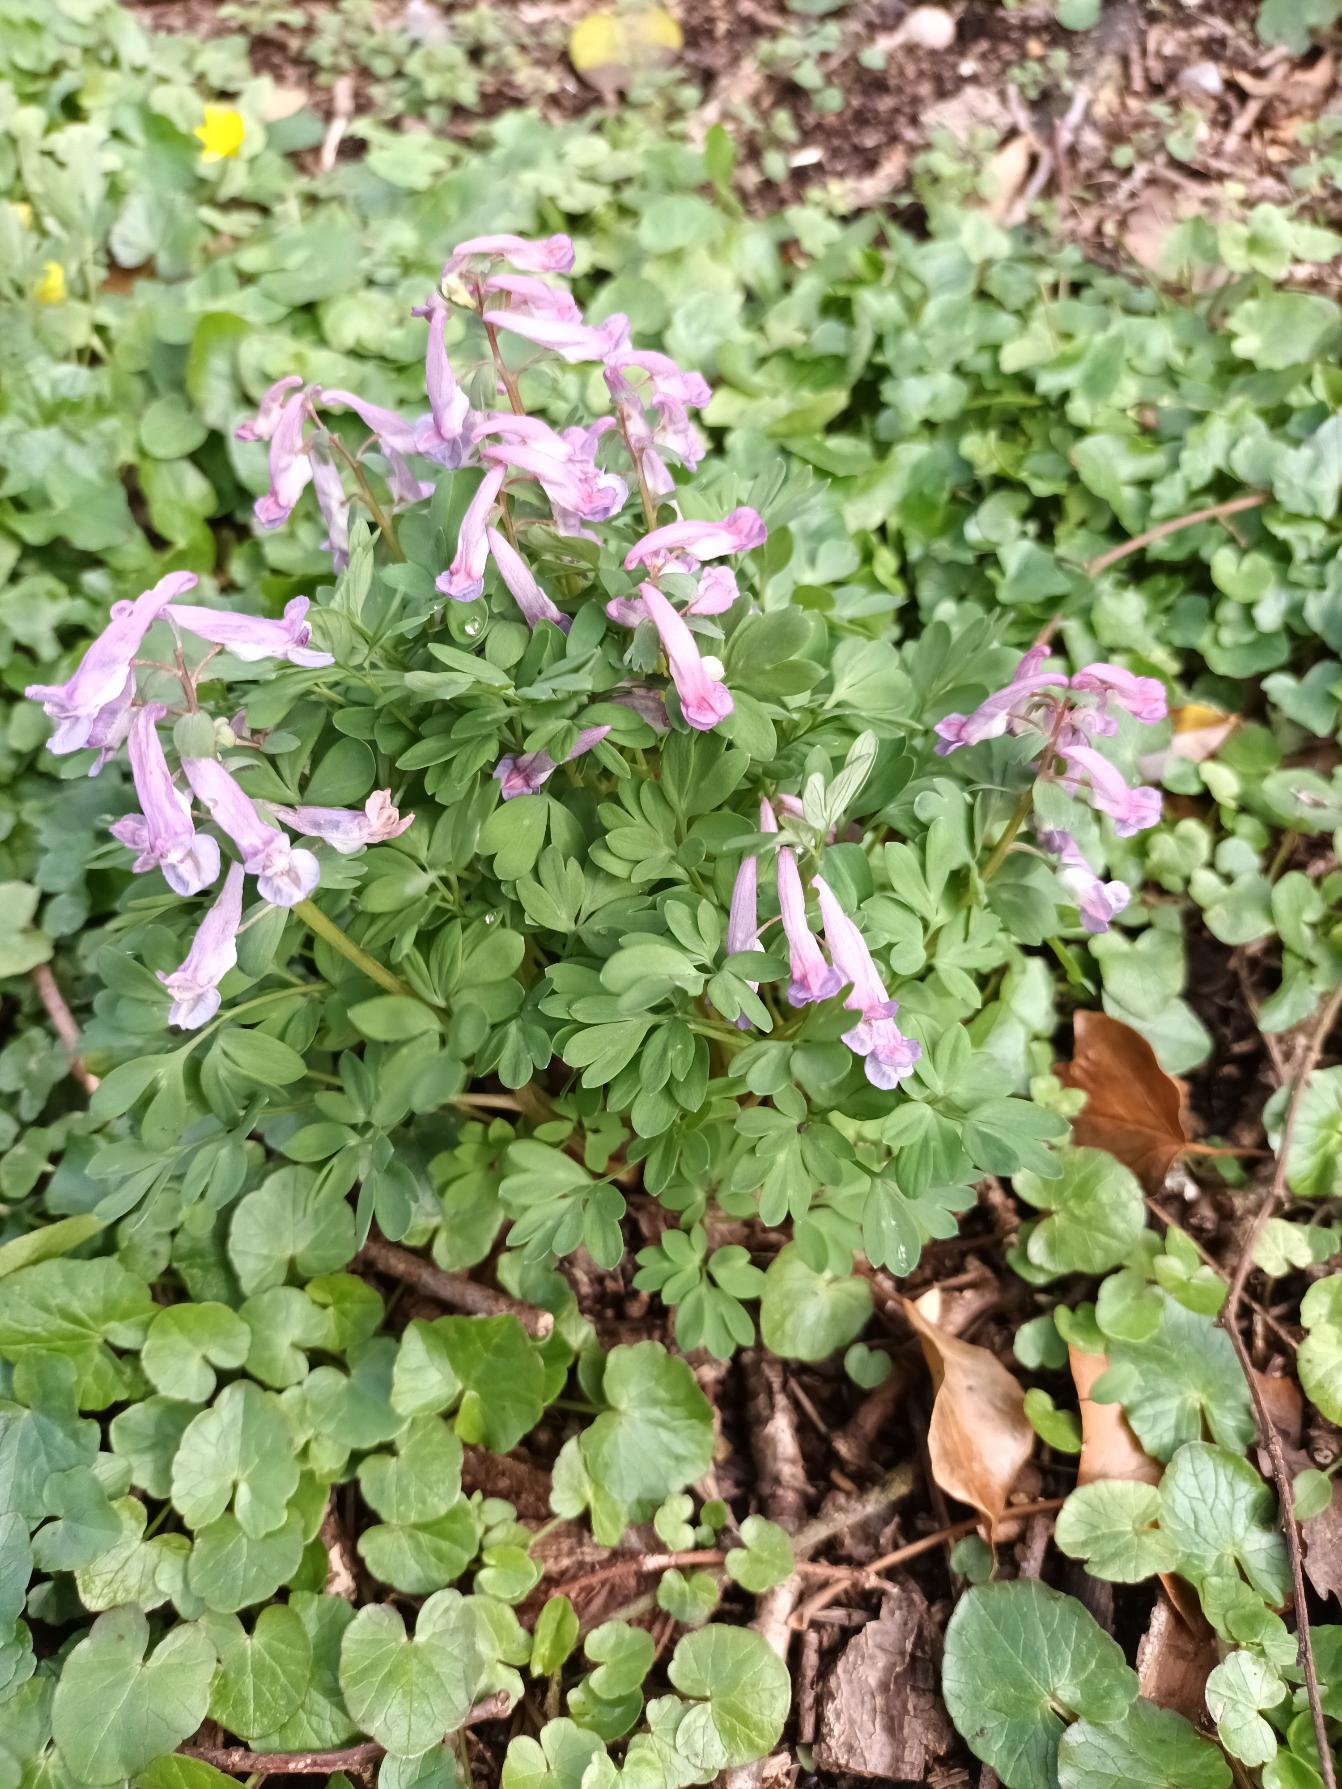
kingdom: Plantae
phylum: Tracheophyta
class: Magnoliopsida
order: Ranunculales
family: Papaveraceae
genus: Corydalis
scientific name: Corydalis solida
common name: Langstilket lærkespore
